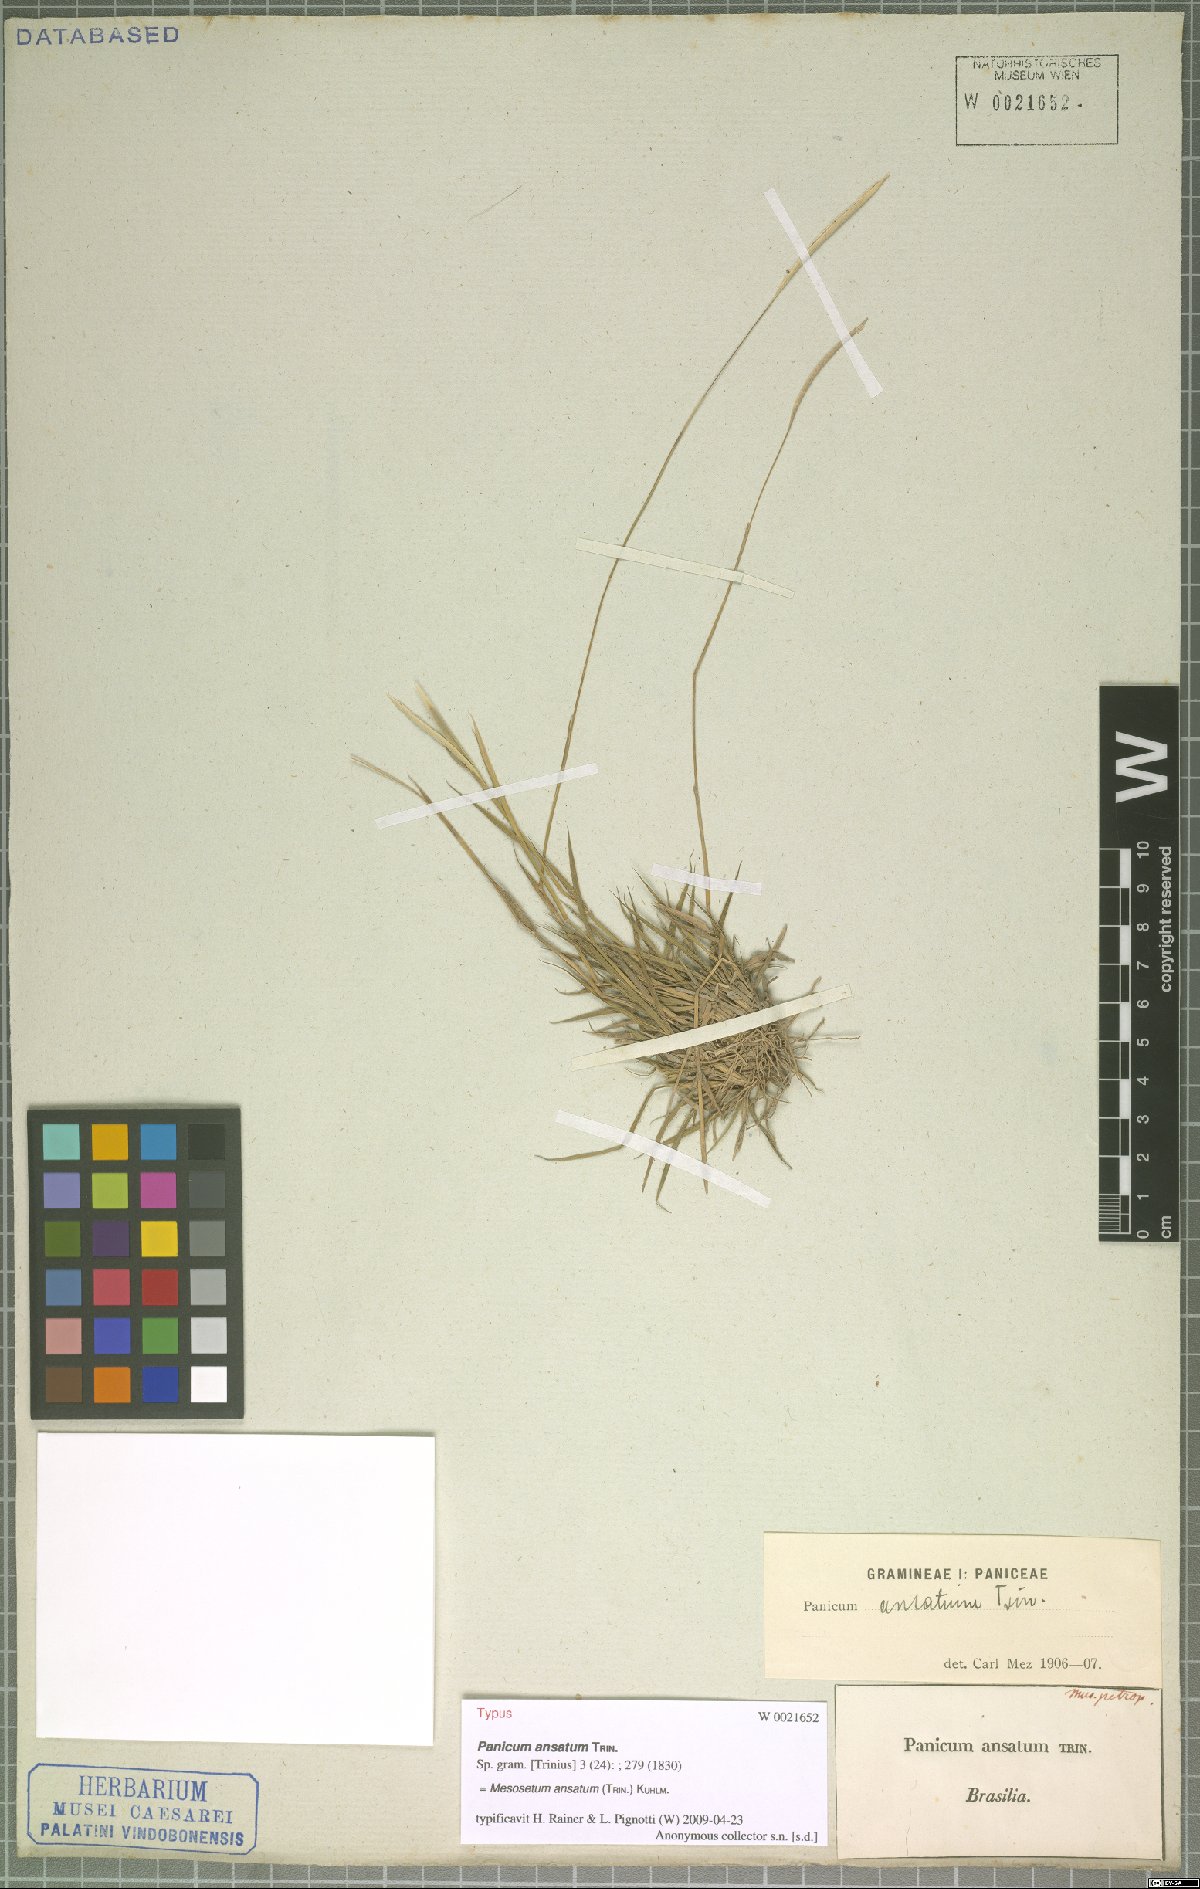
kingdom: Plantae
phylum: Tracheophyta
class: Liliopsida
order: Poales
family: Poaceae
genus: Mesosetum
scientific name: Mesosetum ansatum
